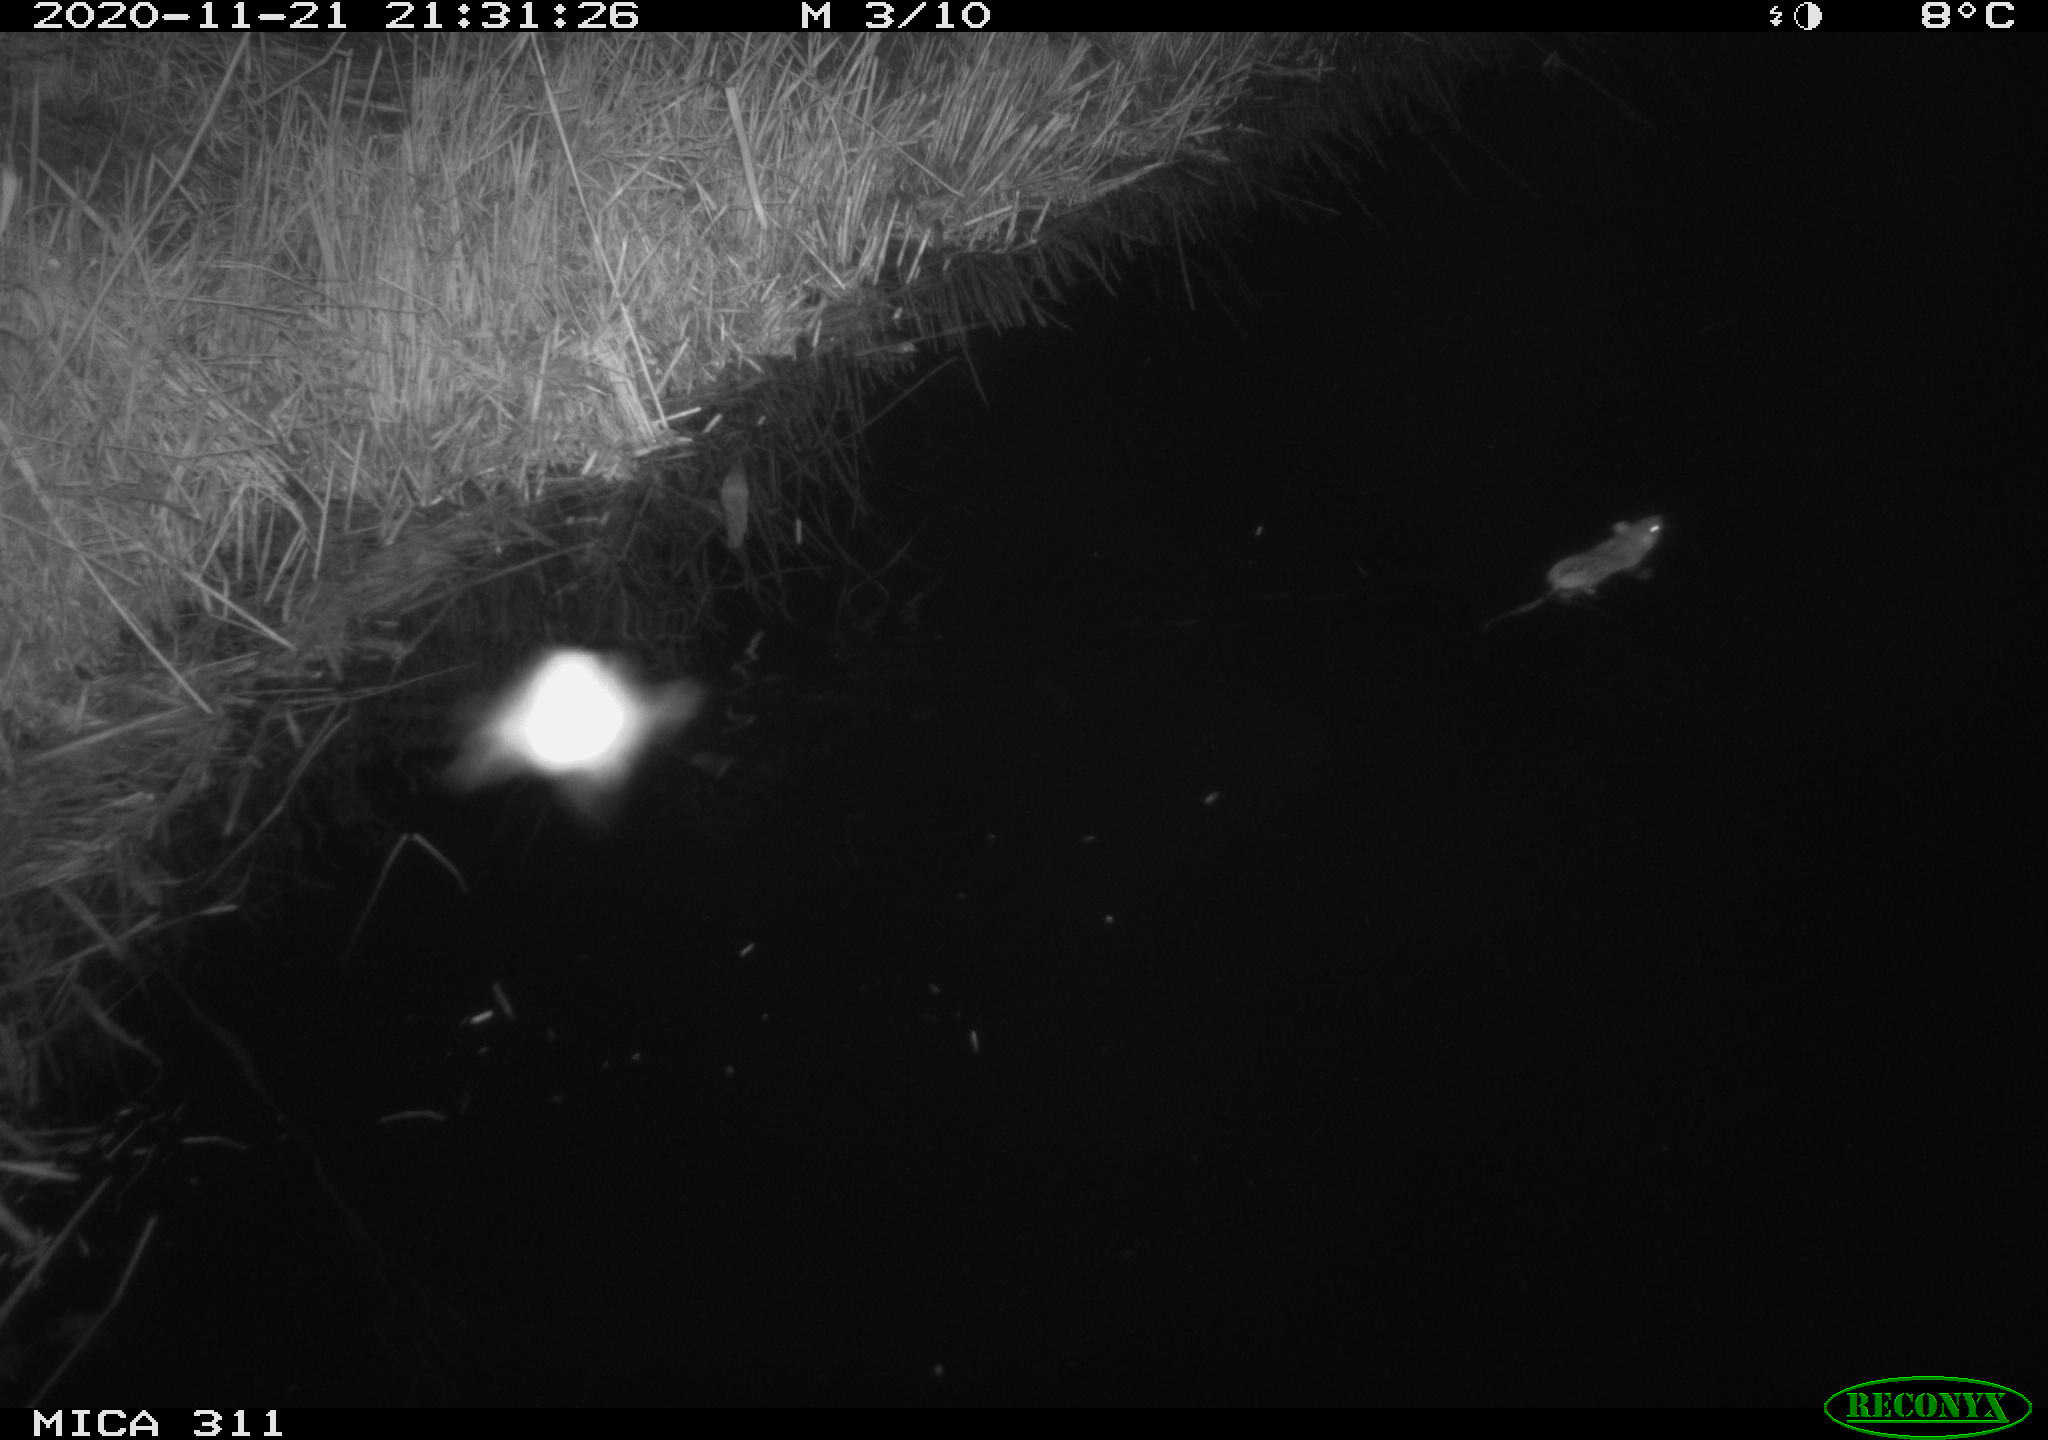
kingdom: Animalia
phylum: Chordata
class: Mammalia
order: Rodentia
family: Muridae
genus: Rattus
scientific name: Rattus norvegicus
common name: Brown rat
